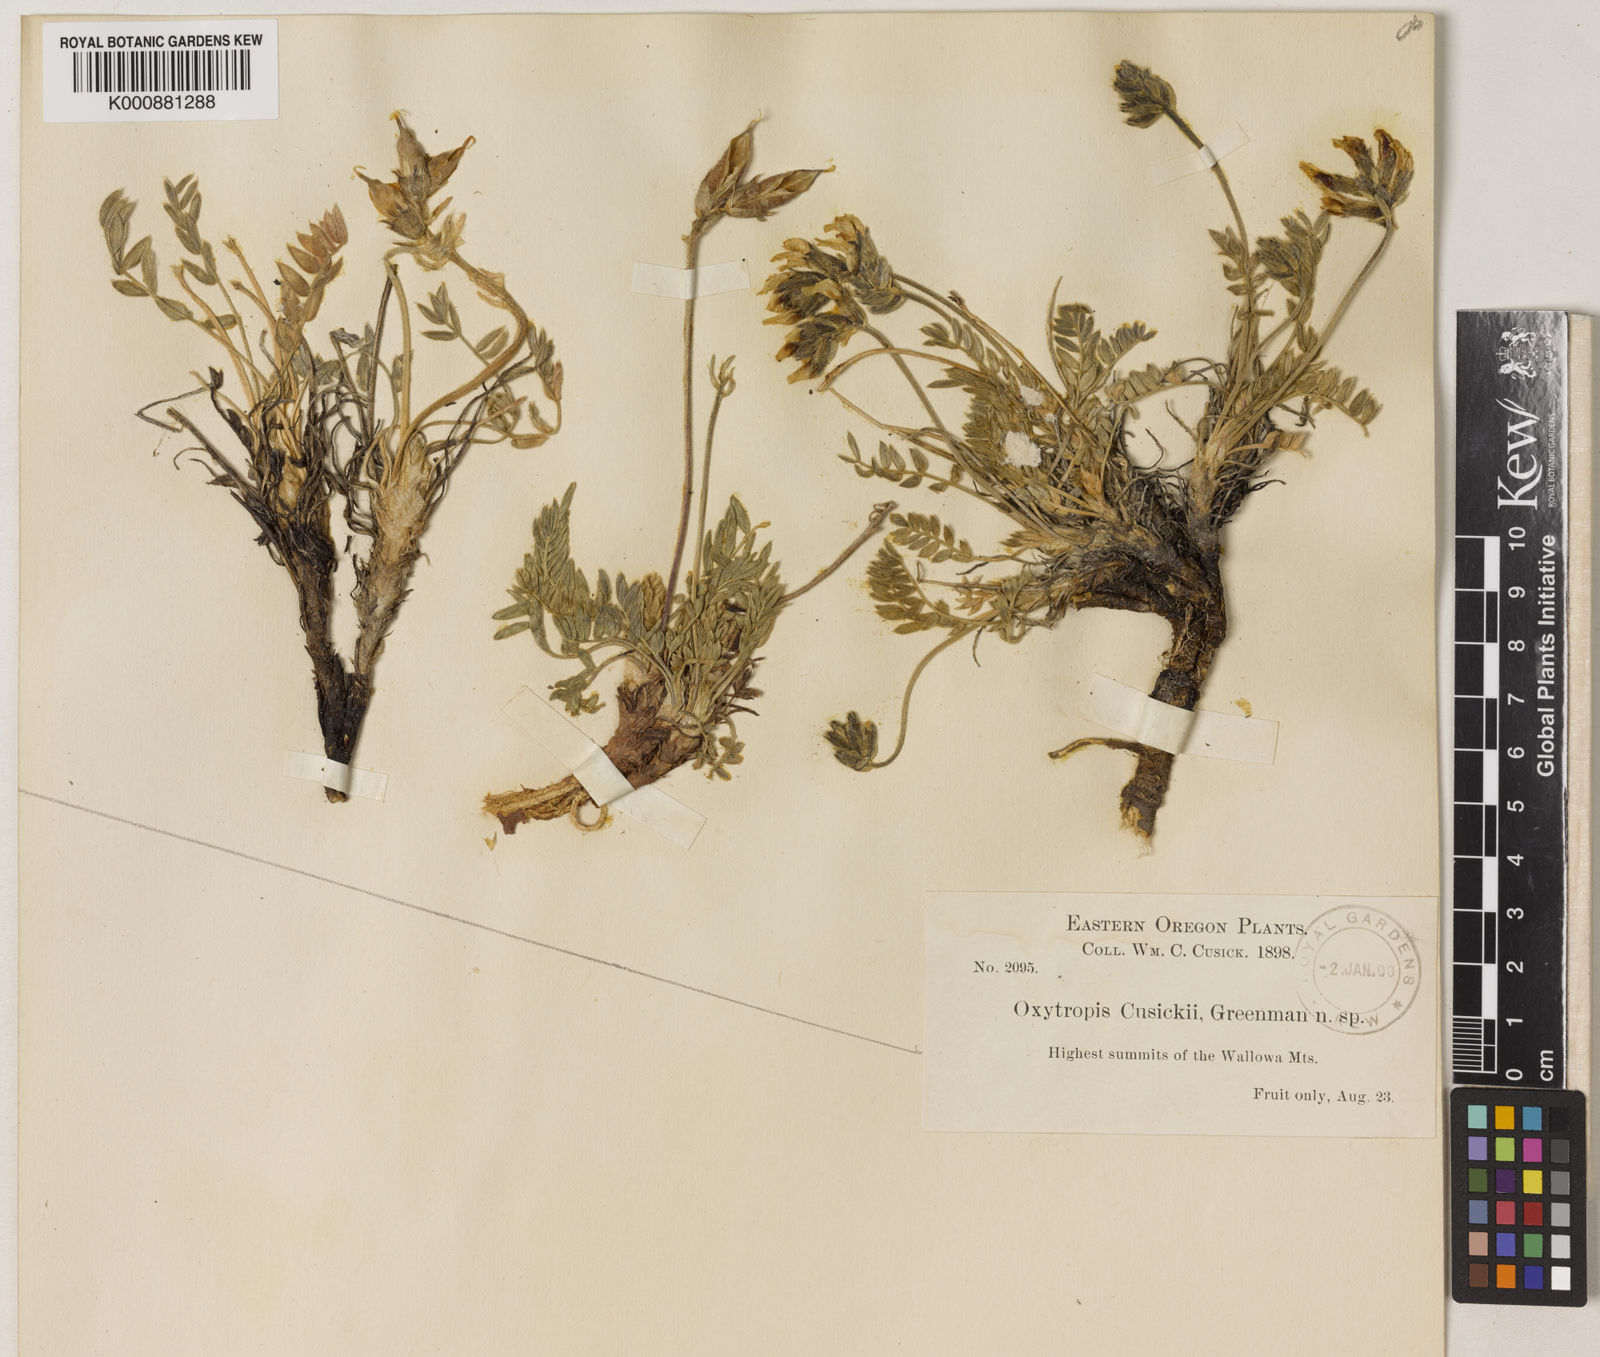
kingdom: Plantae
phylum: Tracheophyta
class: Magnoliopsida
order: Fabales
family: Fabaceae
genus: Oxytropis
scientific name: Oxytropis campestris
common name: Field locoweed
